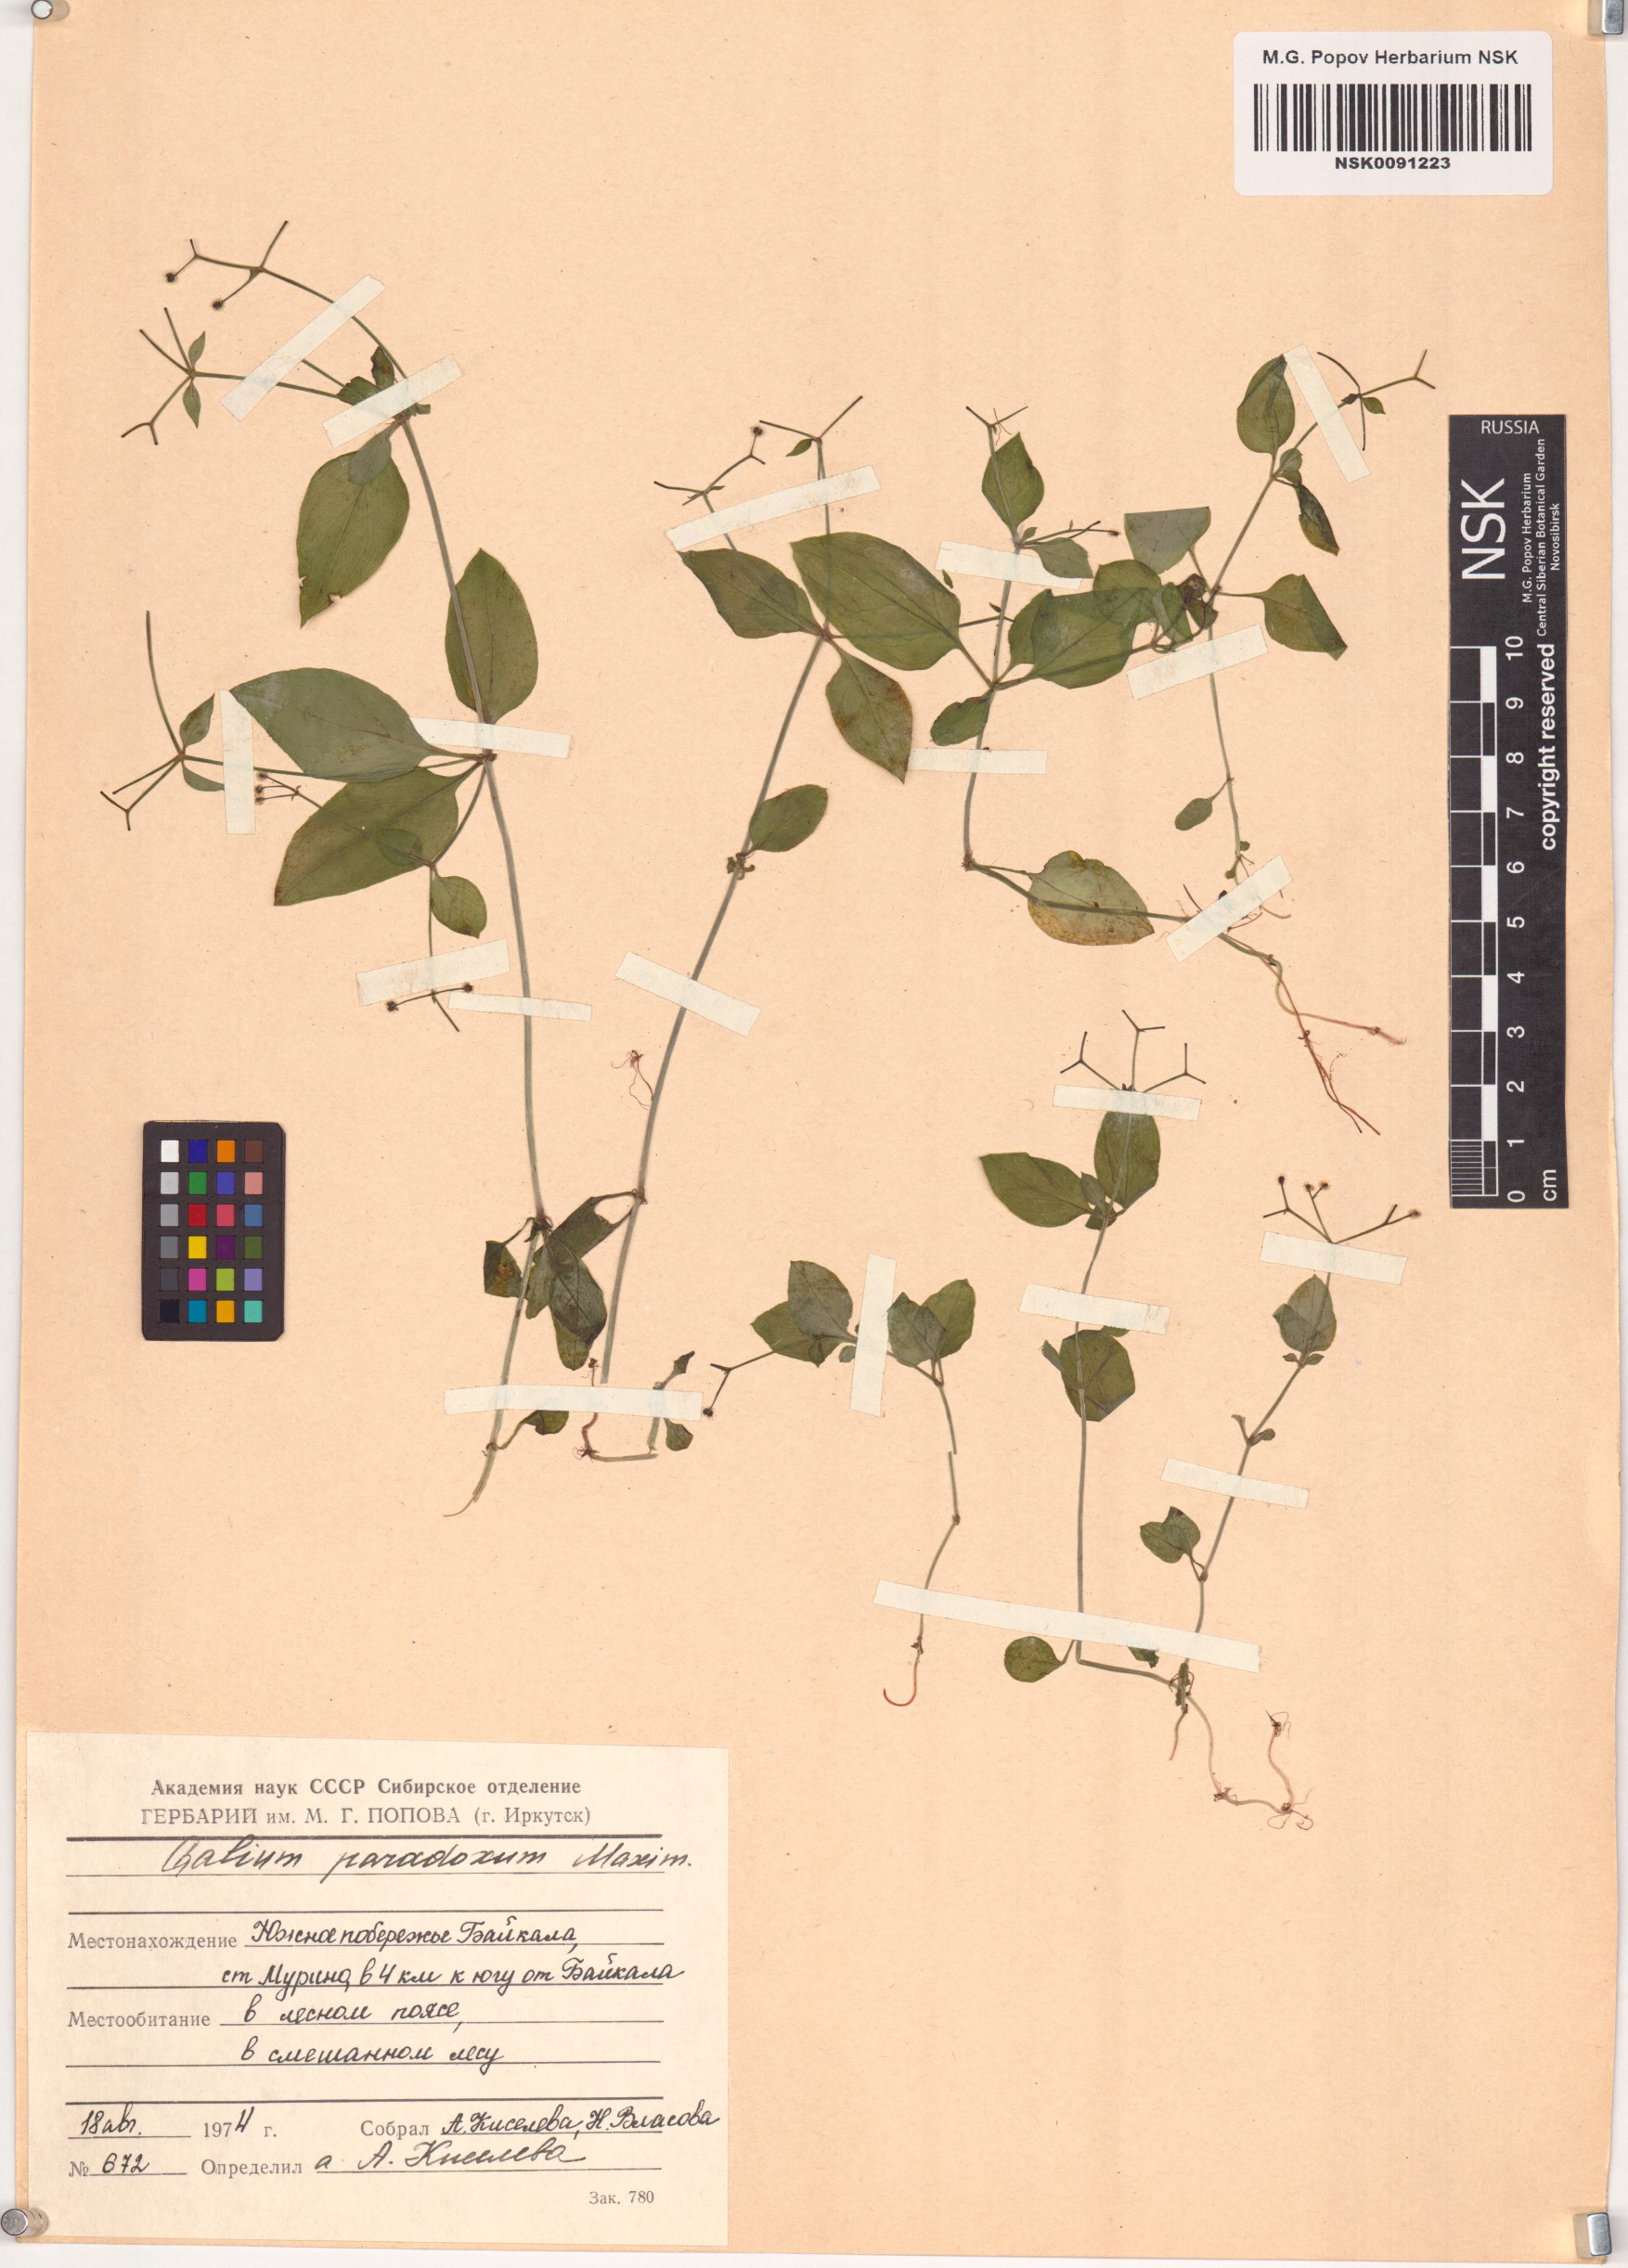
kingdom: Plantae
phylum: Tracheophyta
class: Magnoliopsida
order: Gentianales
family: Rubiaceae
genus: Pseudogalium
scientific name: Pseudogalium paradoxum
